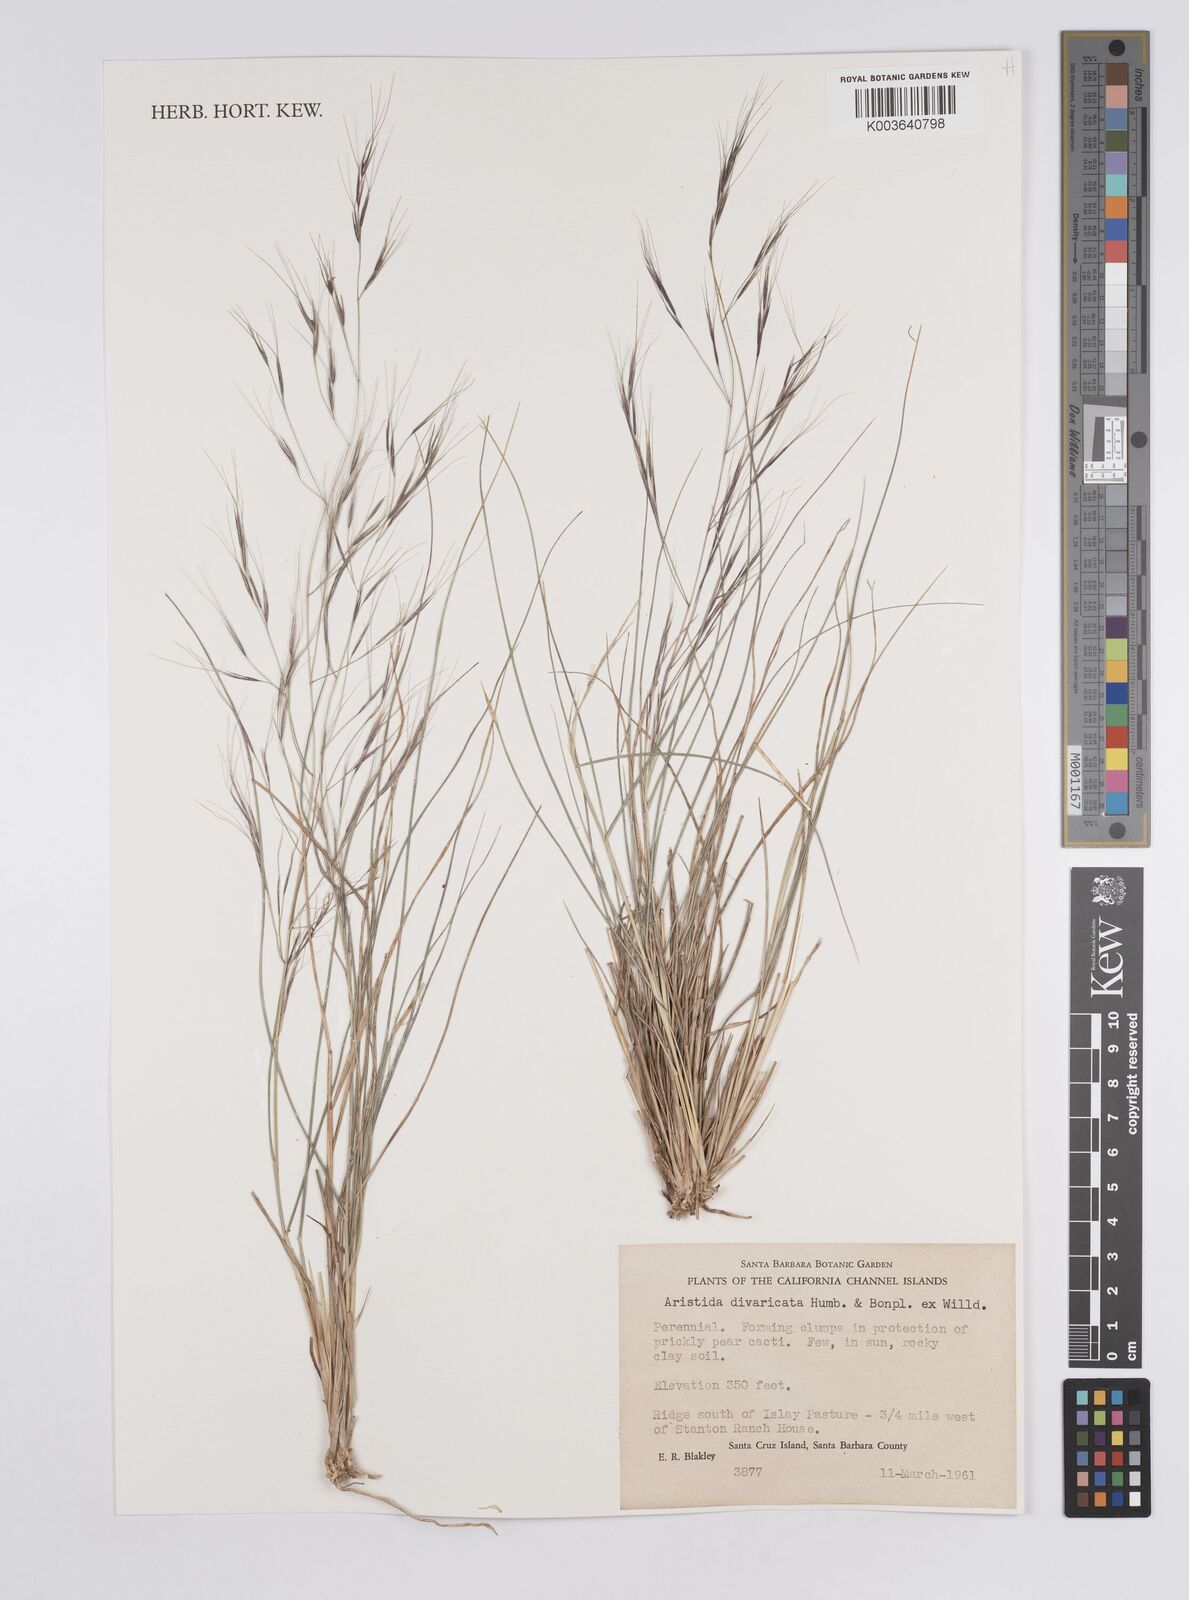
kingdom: Plantae
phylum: Tracheophyta
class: Liliopsida
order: Poales
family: Poaceae
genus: Aristida
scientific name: Aristida laxa
